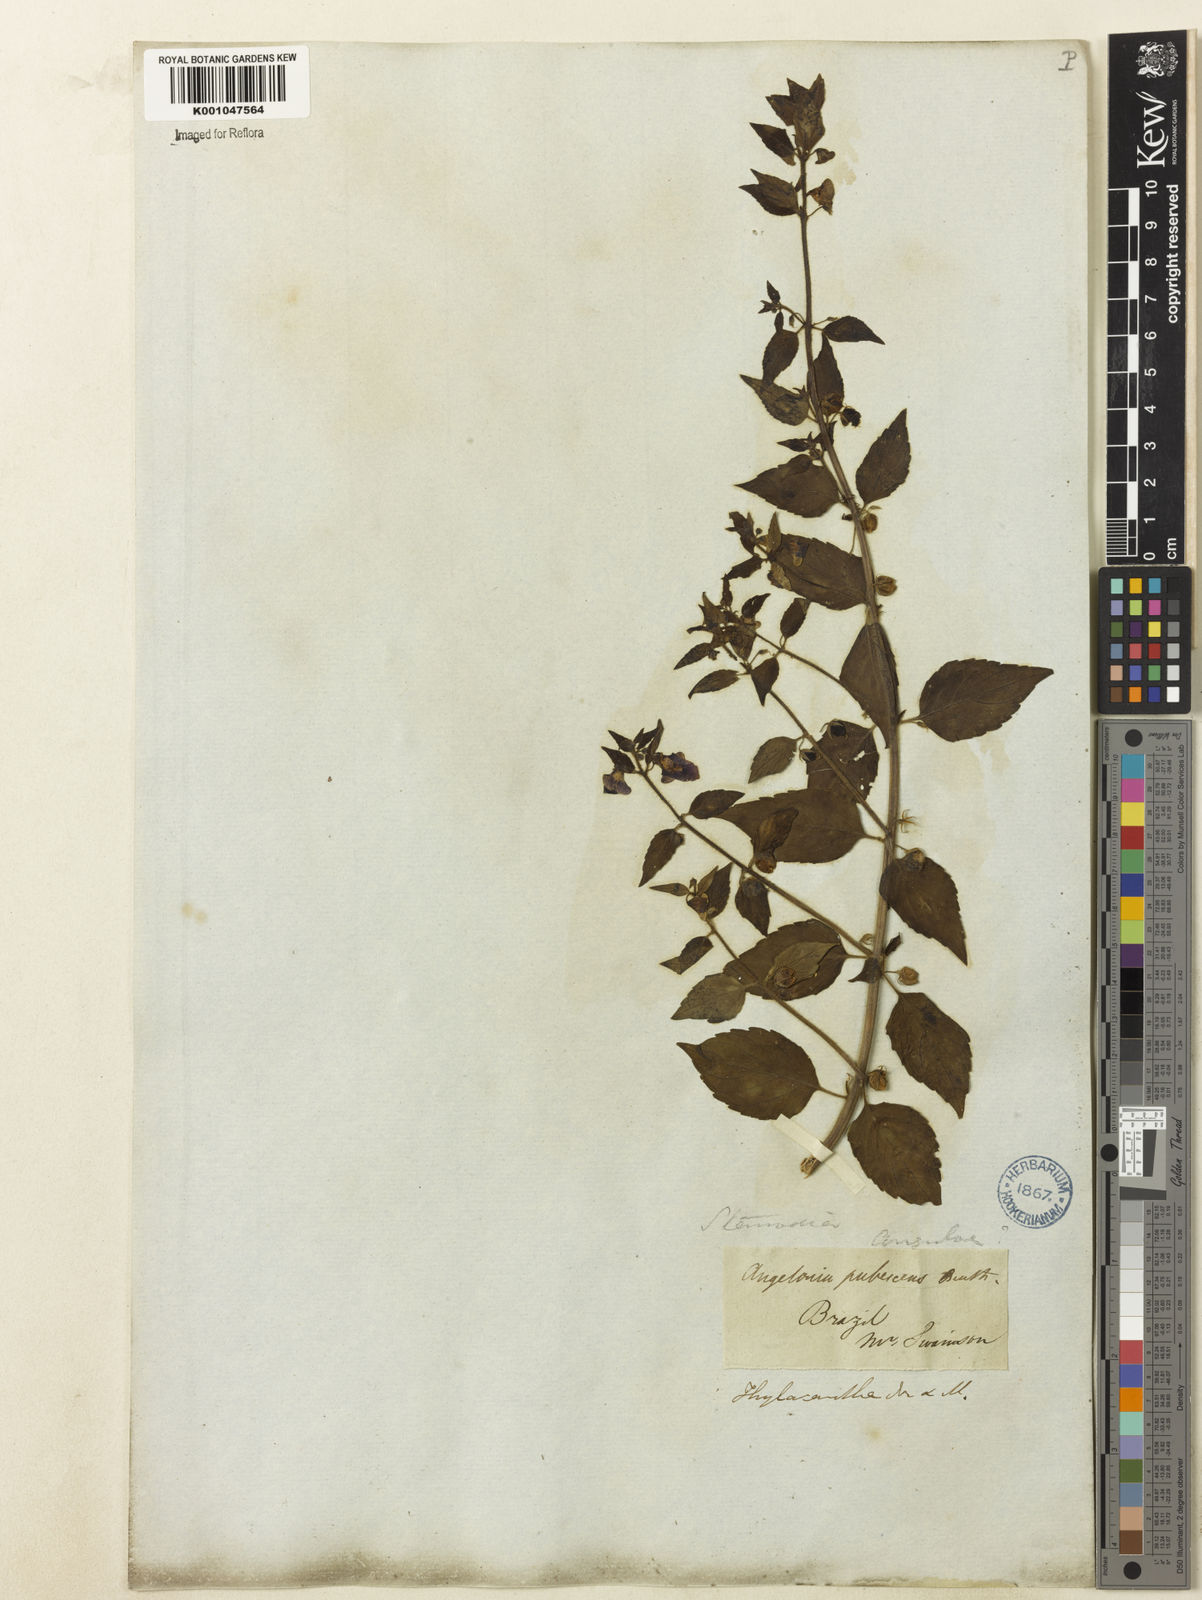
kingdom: Plantae
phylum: Tracheophyta
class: Magnoliopsida
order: Lamiales
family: Plantaginaceae
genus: Angelonia
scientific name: Angelonia pubescens
